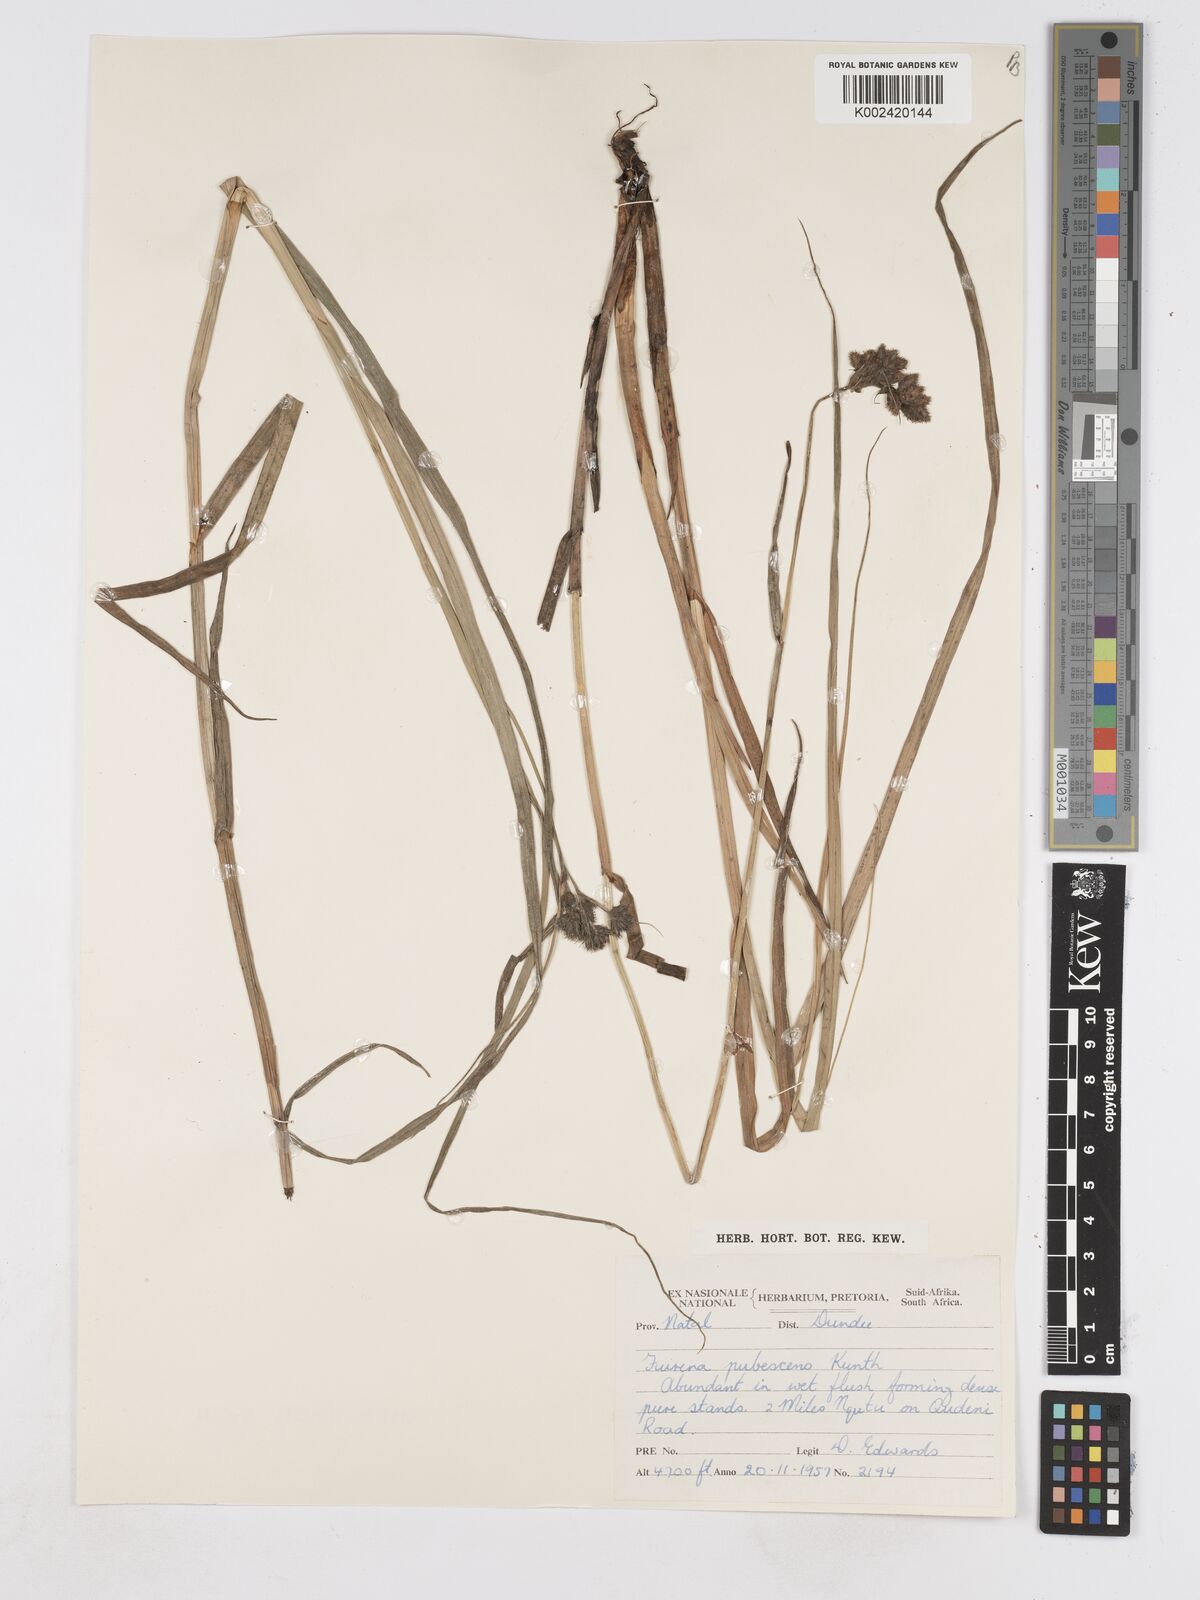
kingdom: Plantae
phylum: Tracheophyta
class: Liliopsida
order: Poales
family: Cyperaceae
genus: Fuirena
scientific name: Fuirena pubescens
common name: Hairy sedge
